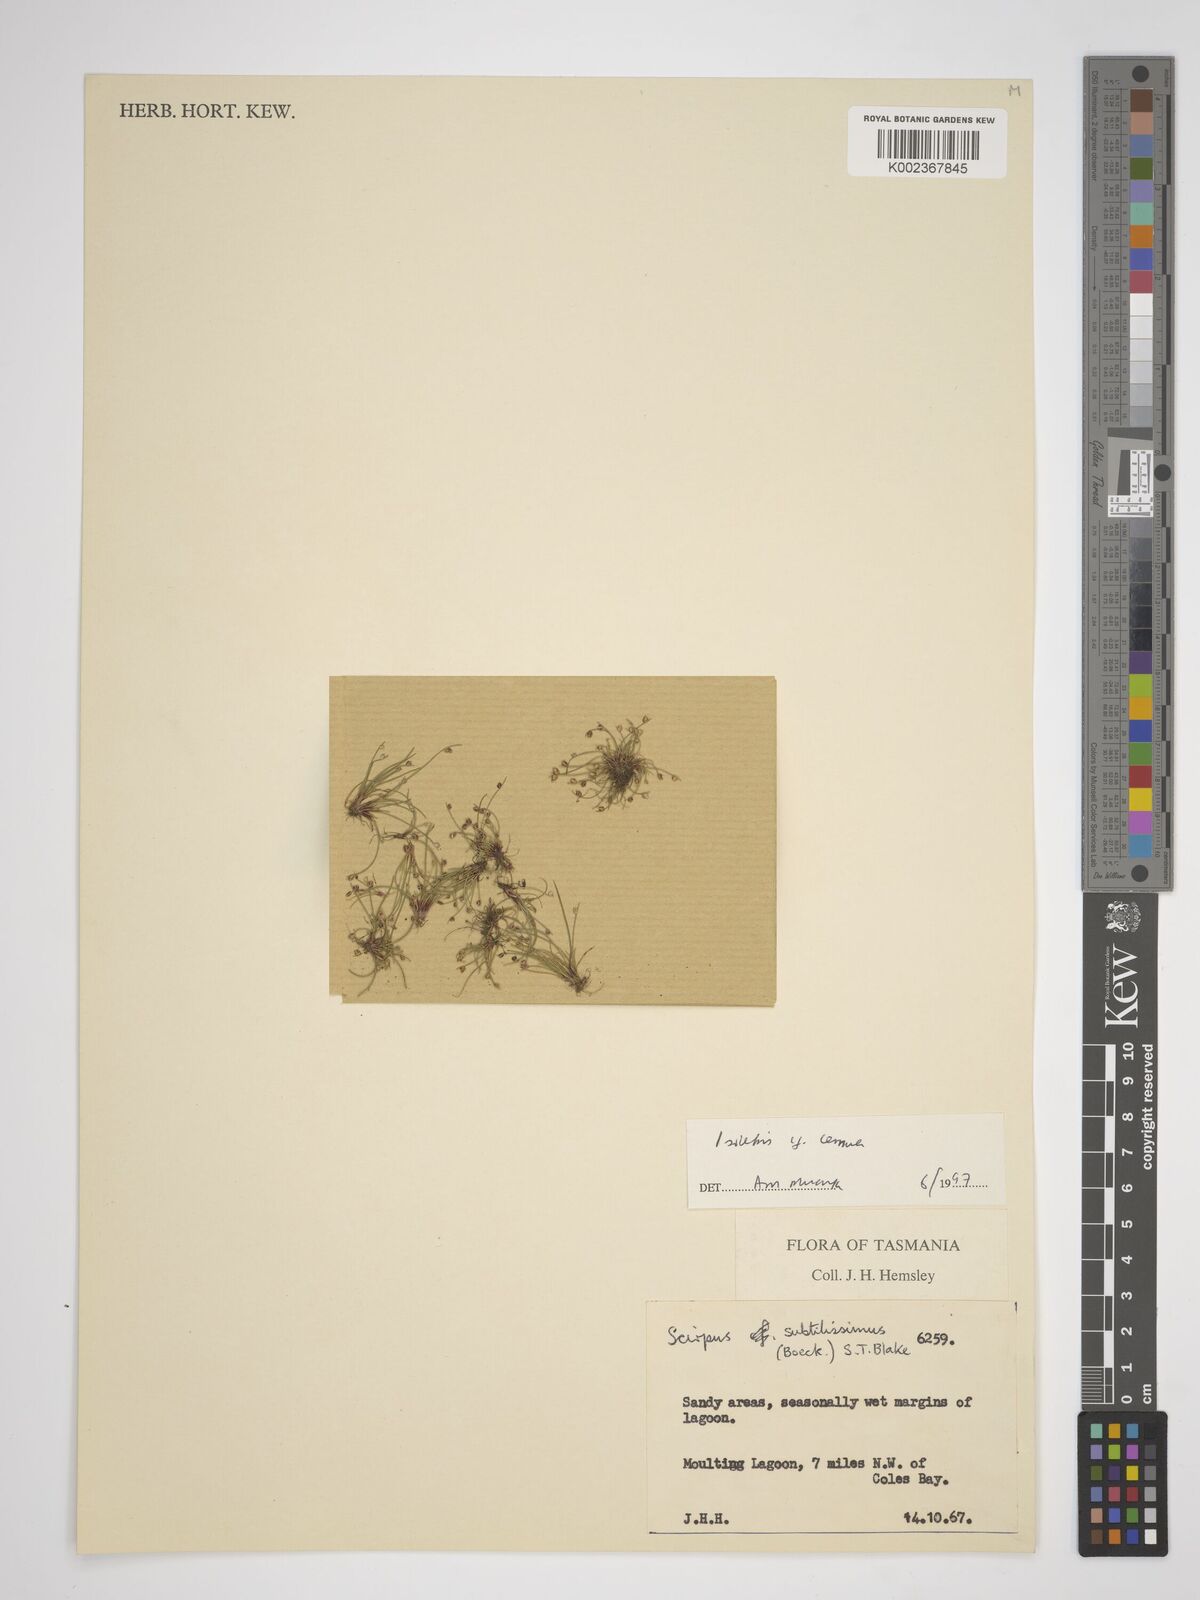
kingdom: Plantae
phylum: Tracheophyta
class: Liliopsida
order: Poales
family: Cyperaceae
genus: Isolepis
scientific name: Isolepis cernua
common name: Slender club-rush
